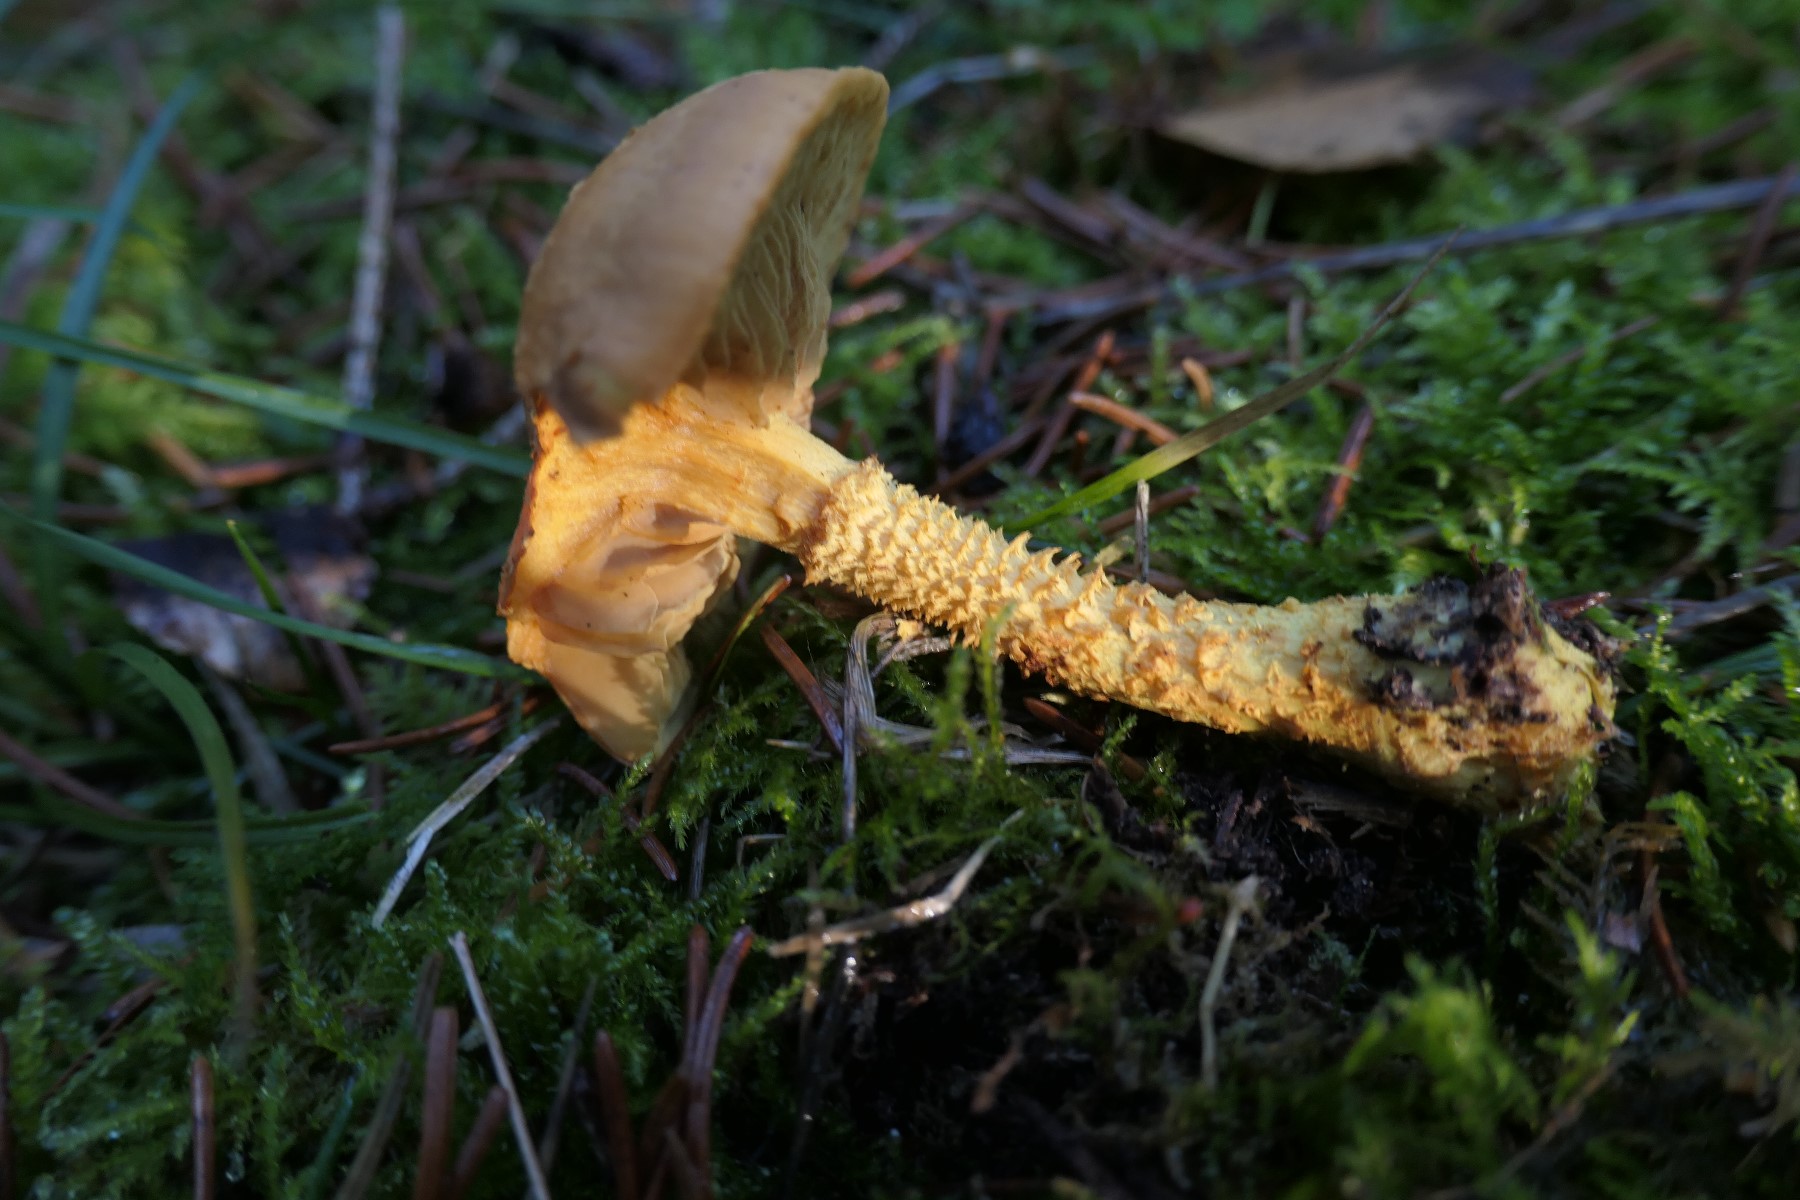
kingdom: Fungi
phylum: Basidiomycota
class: Agaricomycetes
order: Agaricales
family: Strophariaceae
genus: Pholiota
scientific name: Pholiota flammans
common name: flamme-skælhat
